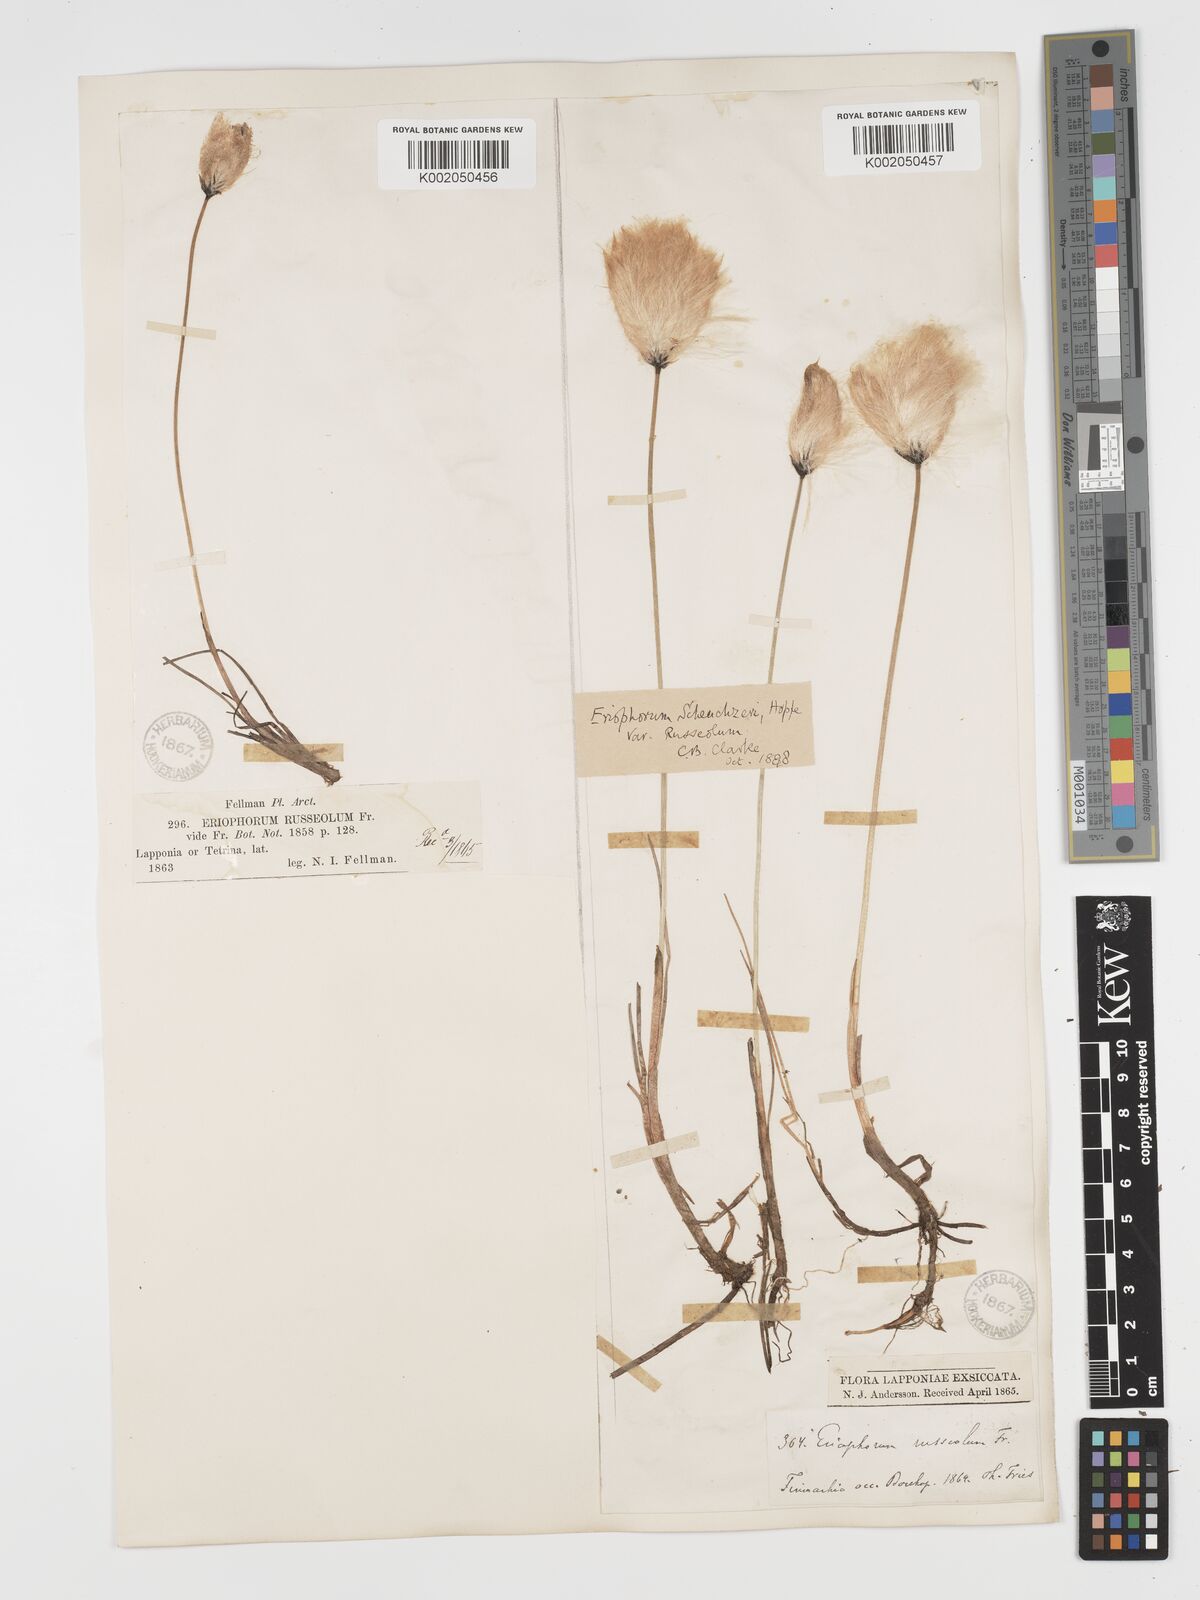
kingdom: Plantae
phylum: Tracheophyta
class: Liliopsida
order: Poales
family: Cyperaceae
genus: Eriophorum
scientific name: Eriophorum scheuchzeri
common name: Scheuchzer's cottongrass
